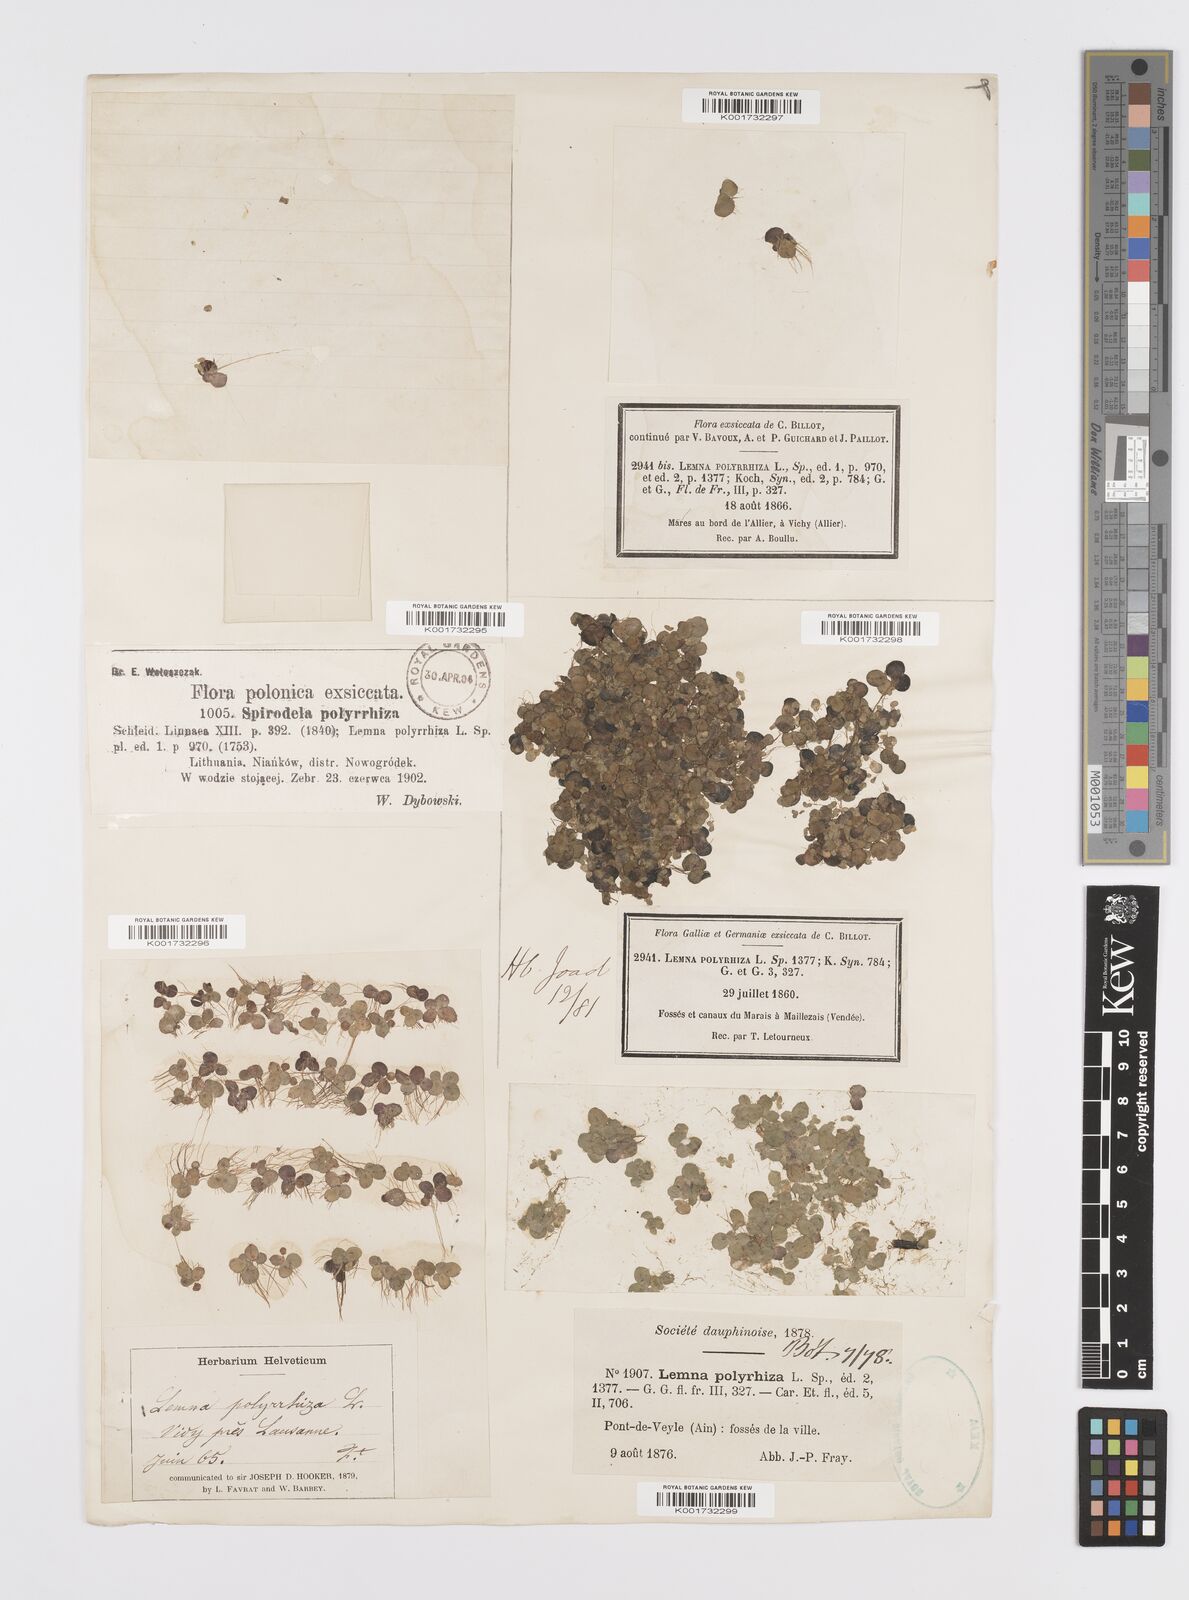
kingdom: Plantae
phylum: Tracheophyta
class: Liliopsida
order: Alismatales
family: Araceae
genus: Spirodela
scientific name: Spirodela polyrhiza
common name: Great duckweed
